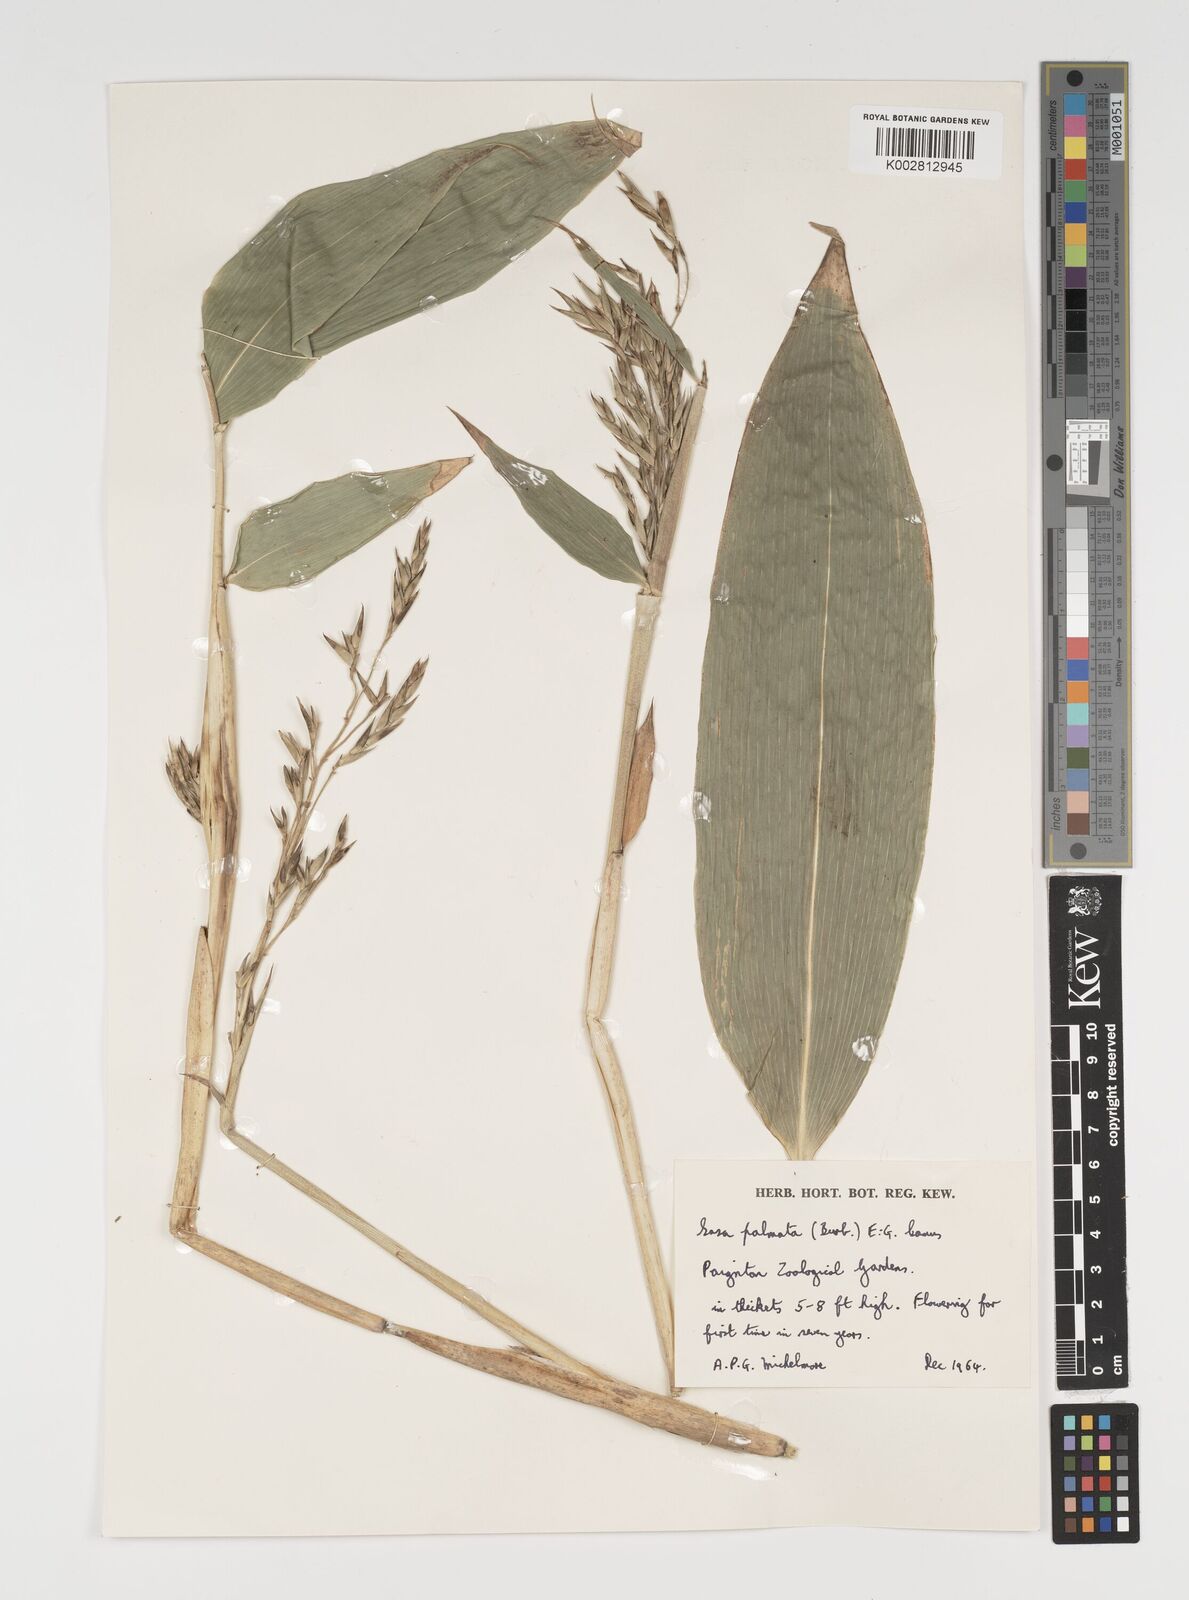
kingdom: Plantae
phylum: Tracheophyta
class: Liliopsida
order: Poales
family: Poaceae
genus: Sasa
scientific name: Sasa palmata
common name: Broad-leaved bamboo
